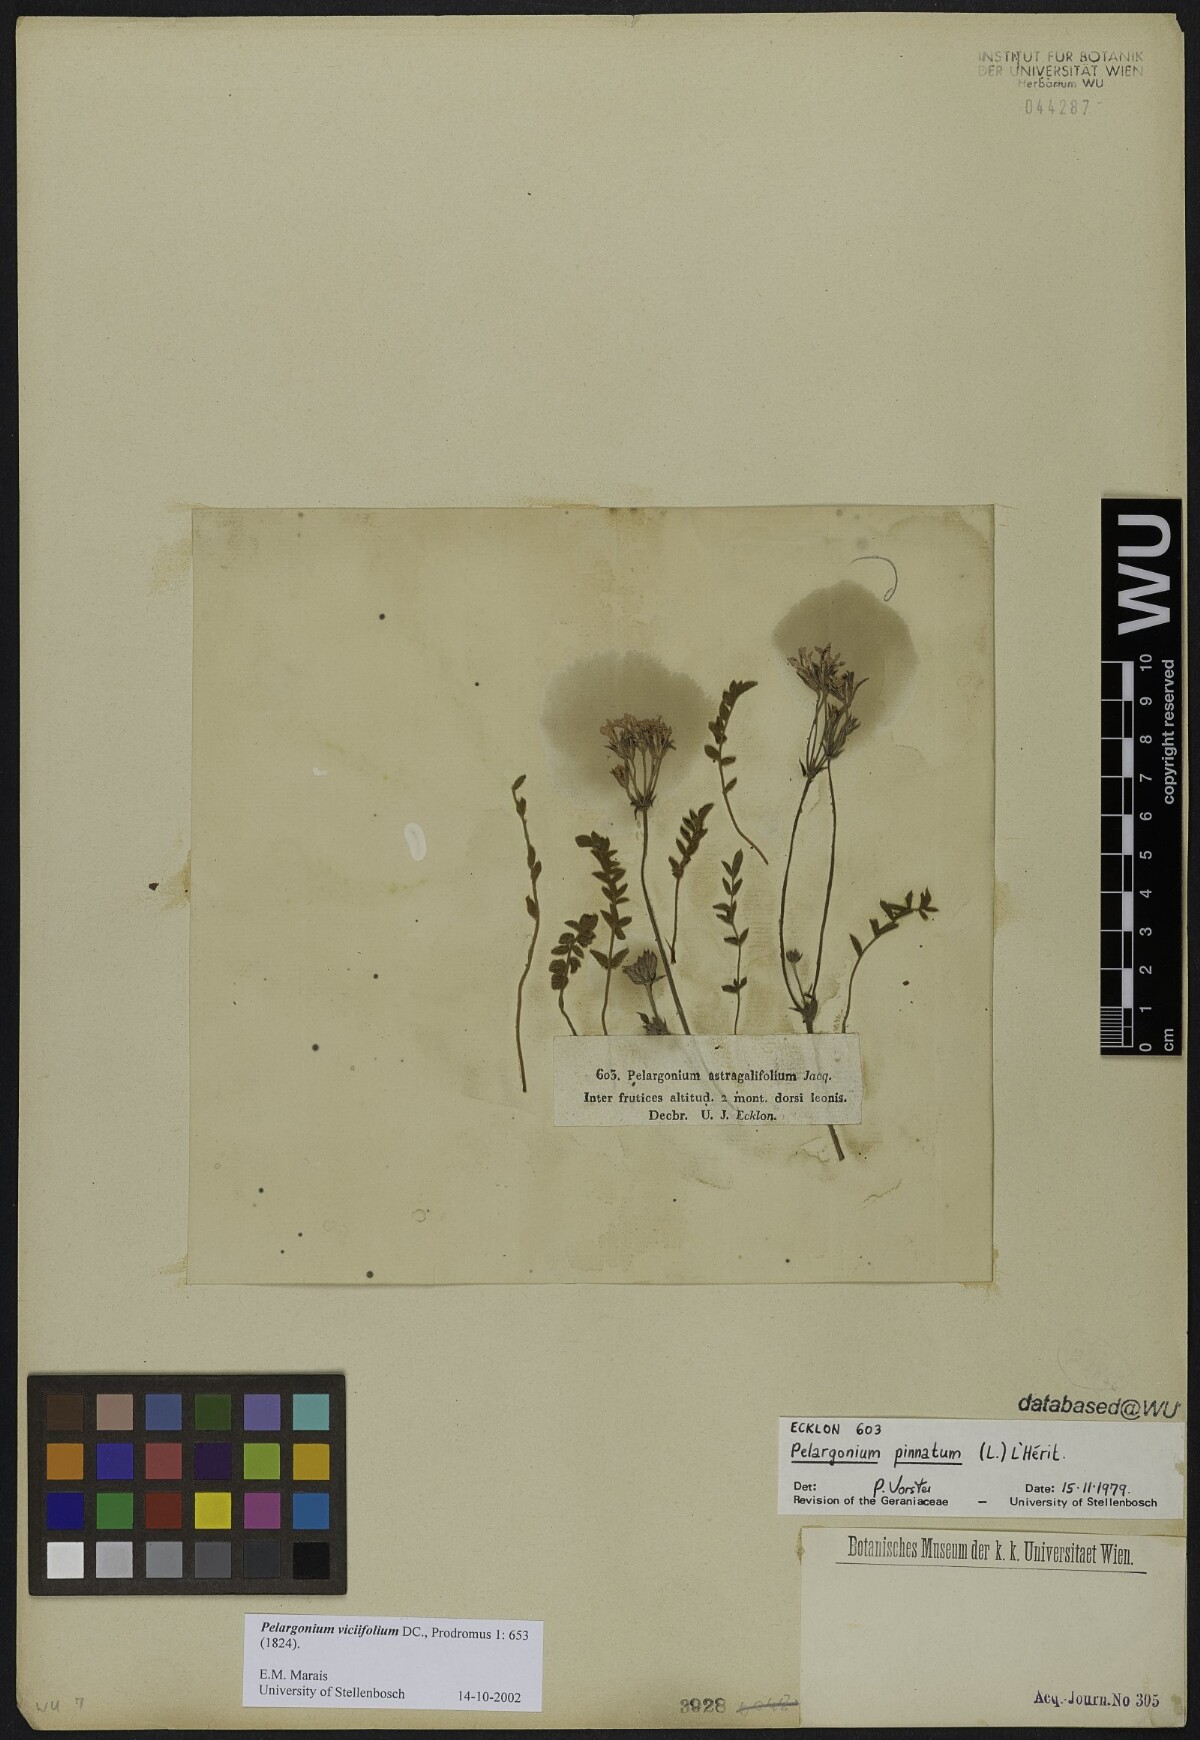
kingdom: Plantae
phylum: Tracheophyta
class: Magnoliopsida
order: Geraniales
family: Geraniaceae
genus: Pelargonium
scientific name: Pelargonium viciifolium
